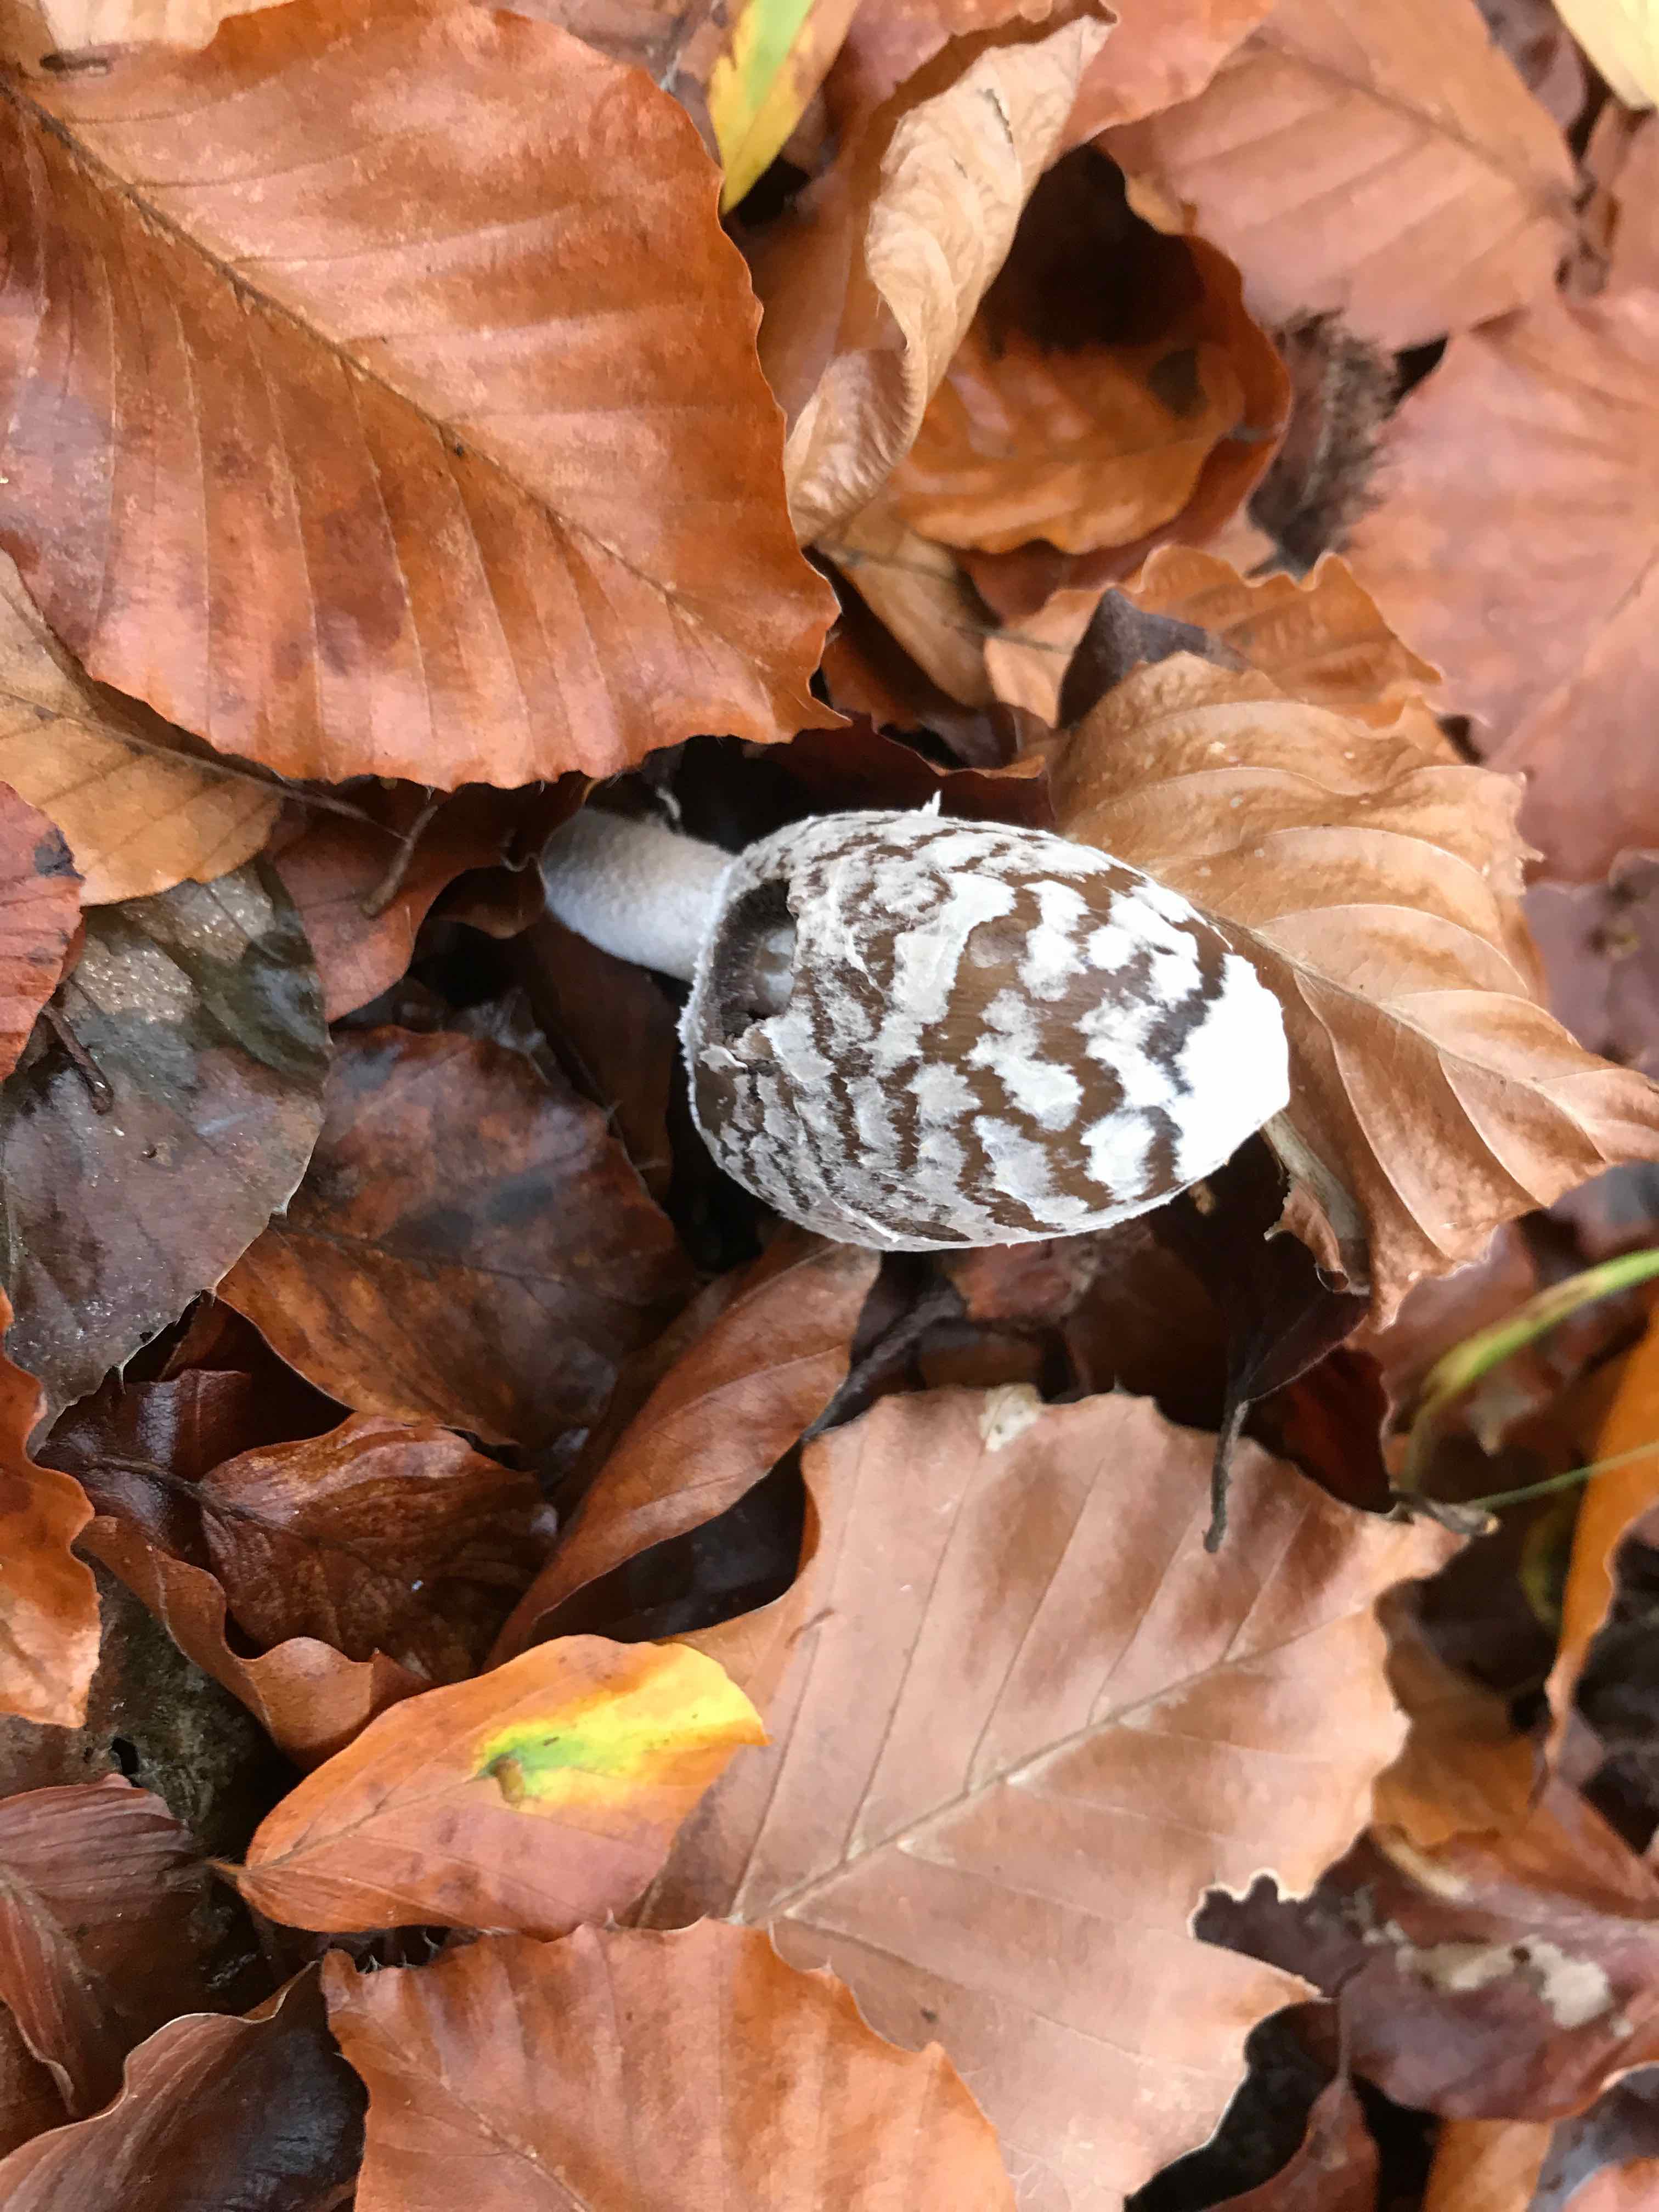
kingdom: Fungi
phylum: Basidiomycota
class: Agaricomycetes
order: Agaricales
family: Psathyrellaceae
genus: Coprinopsis
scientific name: Coprinopsis picacea
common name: skade-blækhat
